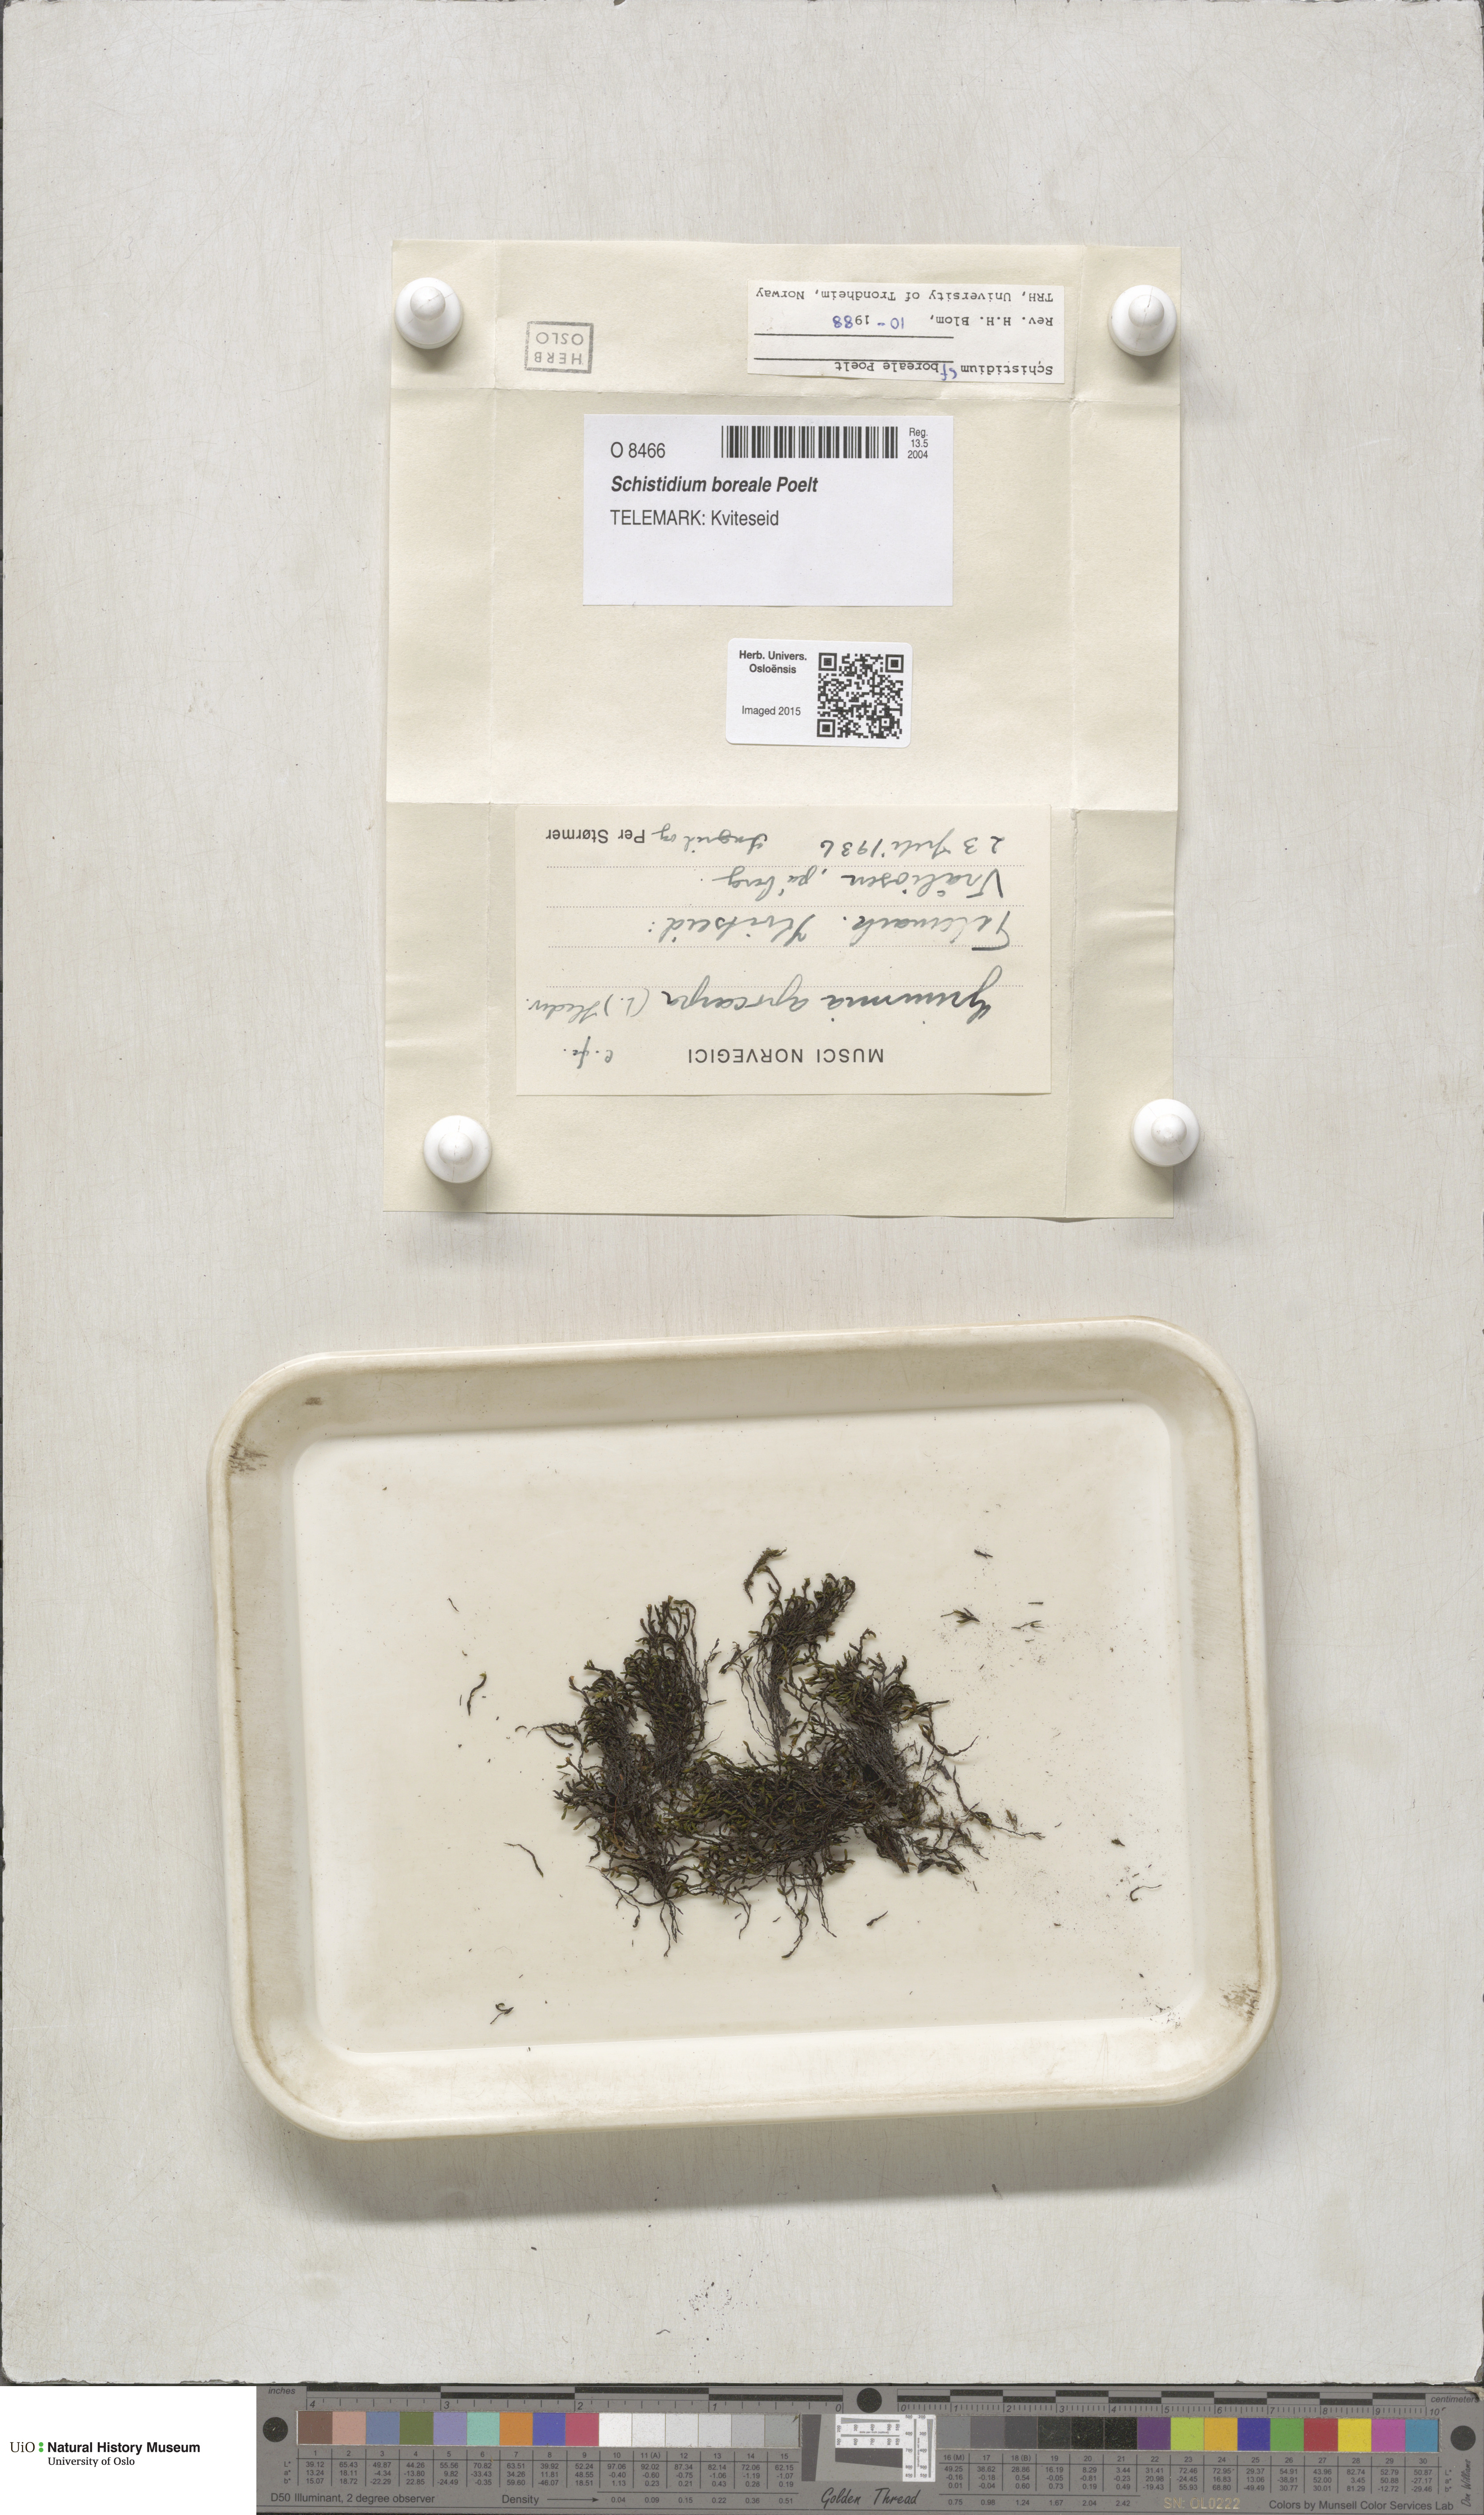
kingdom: Plantae
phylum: Bryophyta
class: Bryopsida
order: Grimmiales
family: Grimmiaceae
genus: Schistidium
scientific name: Schistidium boreale
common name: Boreal bloom moss
